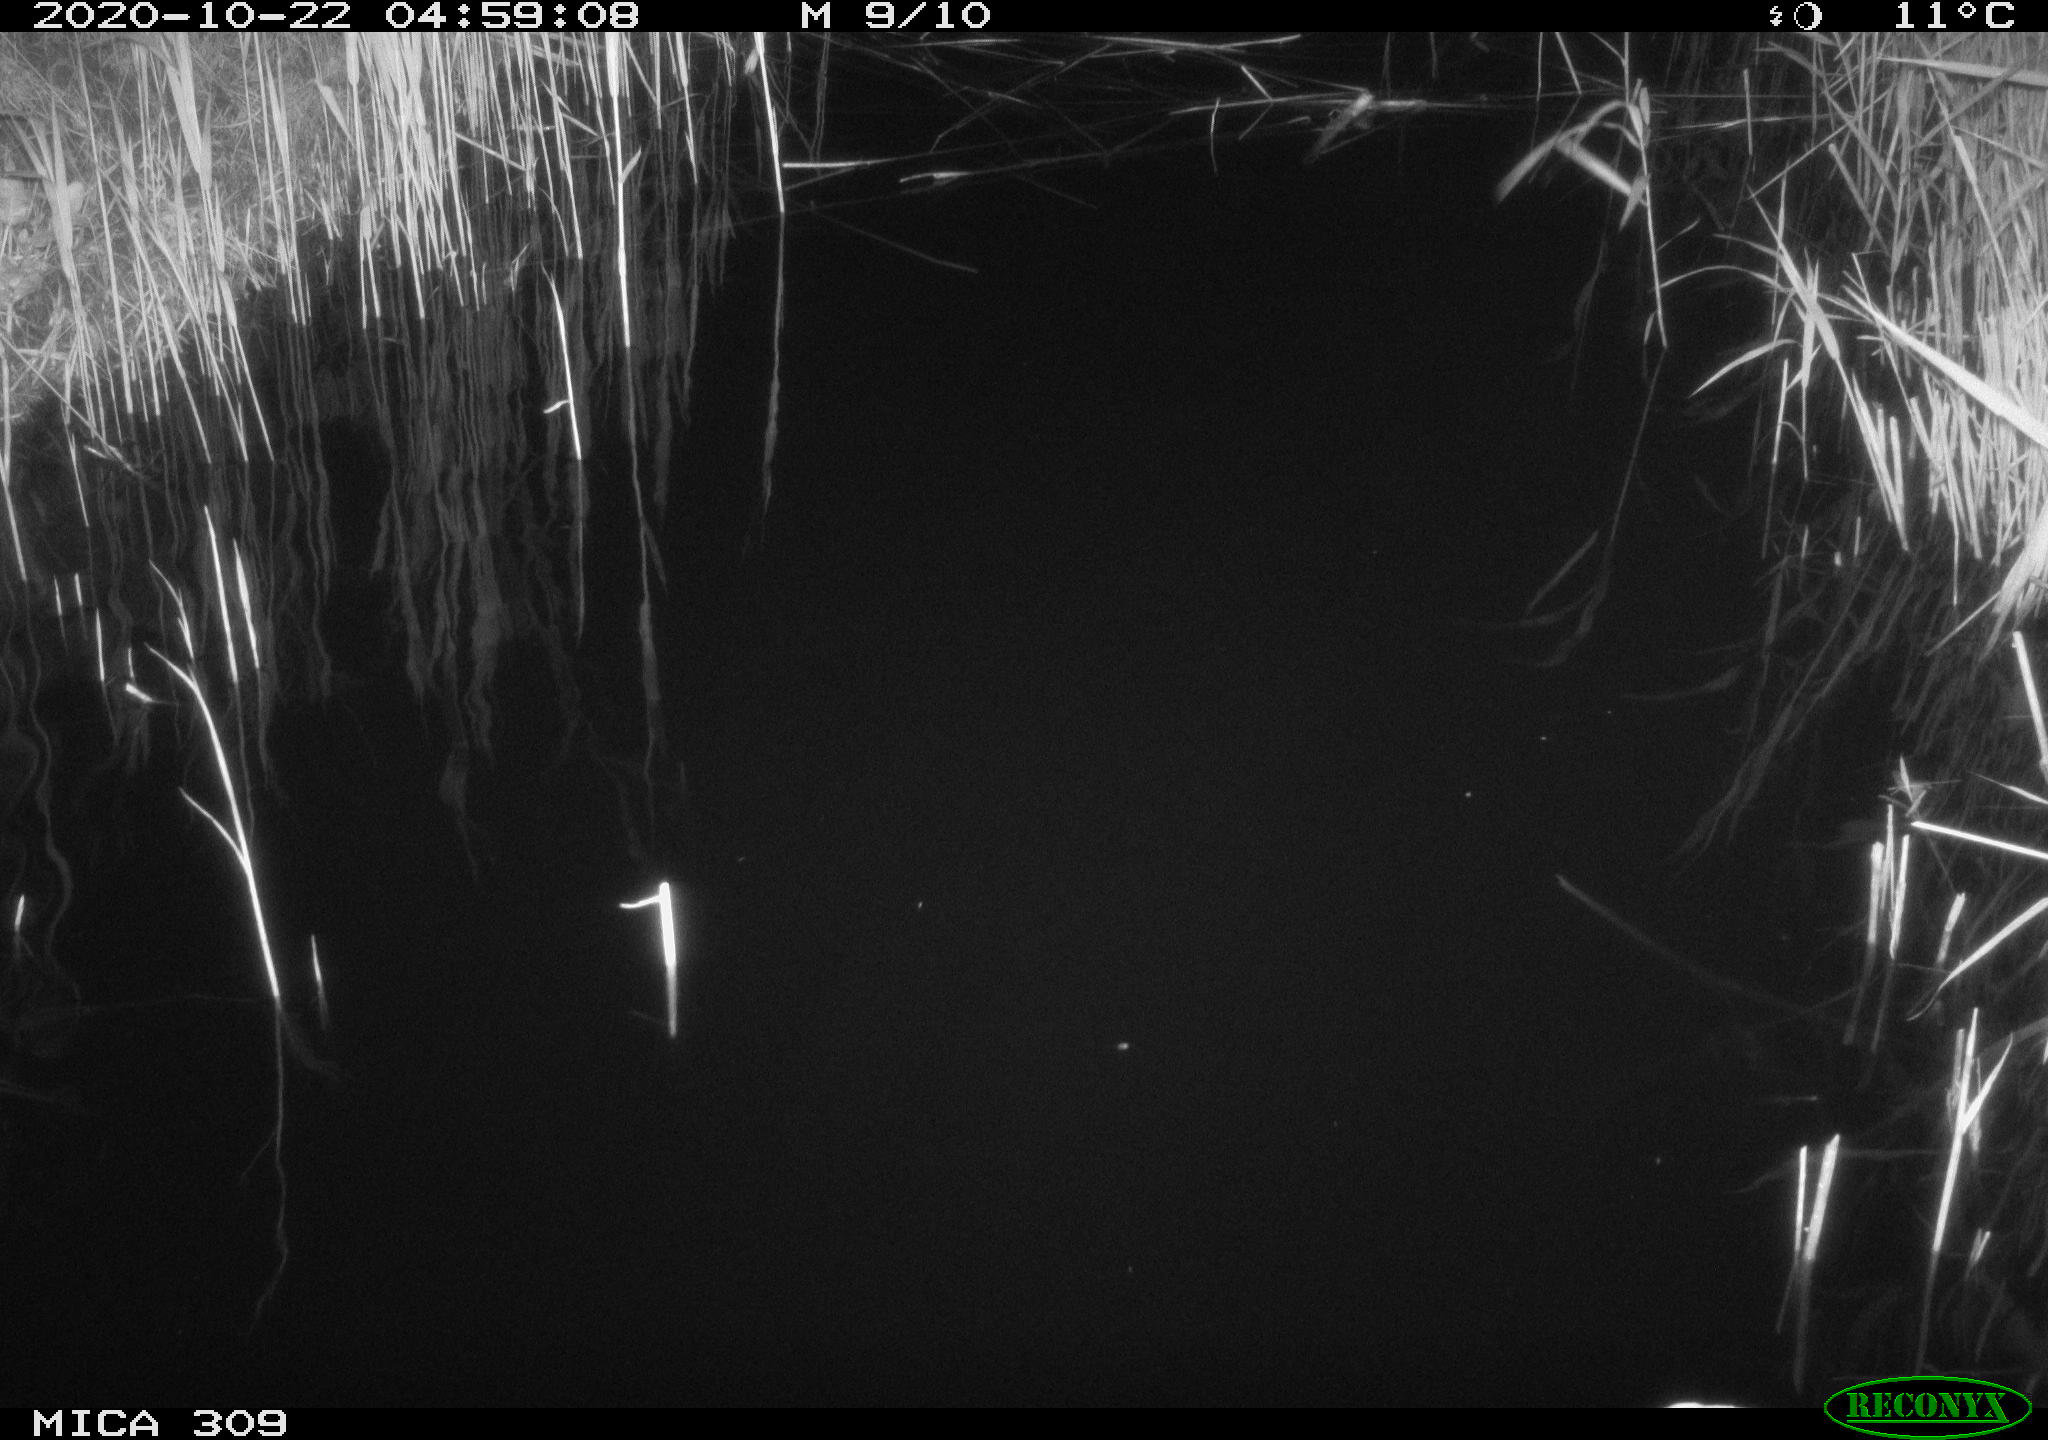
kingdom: Animalia
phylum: Chordata
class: Mammalia
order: Rodentia
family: Muridae
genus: Rattus
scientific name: Rattus norvegicus
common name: Brown rat
